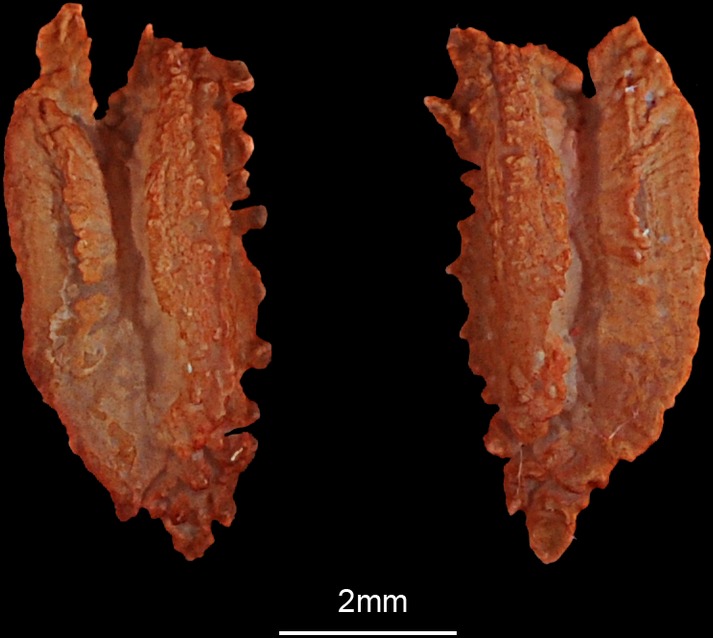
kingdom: Animalia
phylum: Chordata
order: Perciformes
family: Labridae
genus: Cheilinus
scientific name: Cheilinus lunulatus
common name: Broomtail wrasse
